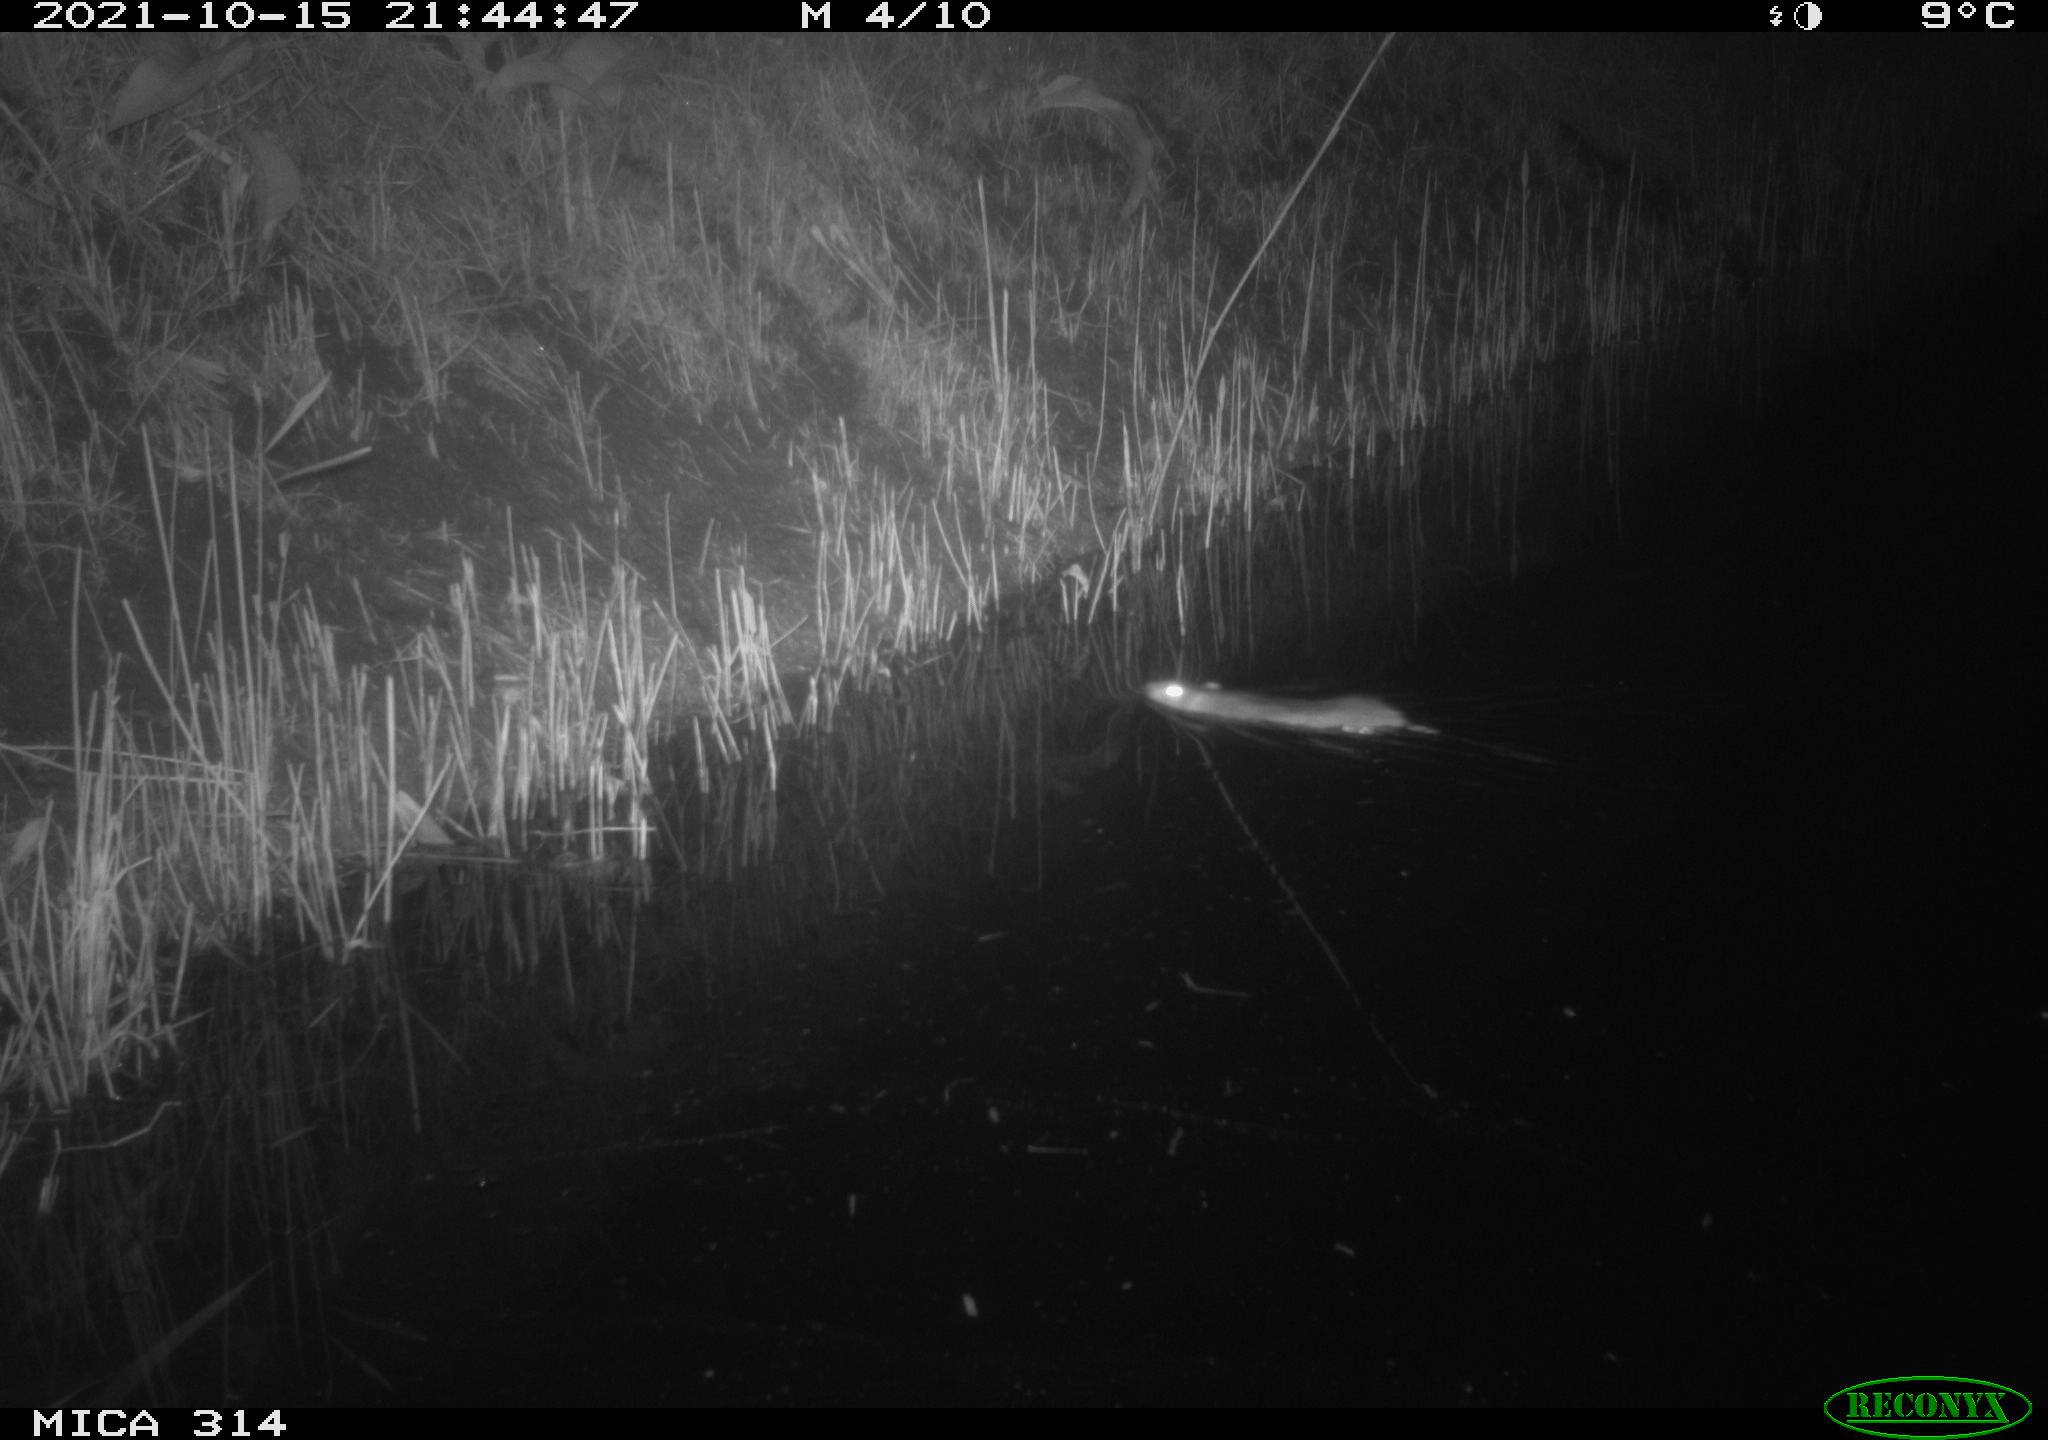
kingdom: Animalia
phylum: Chordata
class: Mammalia
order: Rodentia
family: Muridae
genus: Rattus
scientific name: Rattus norvegicus
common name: Brown rat
